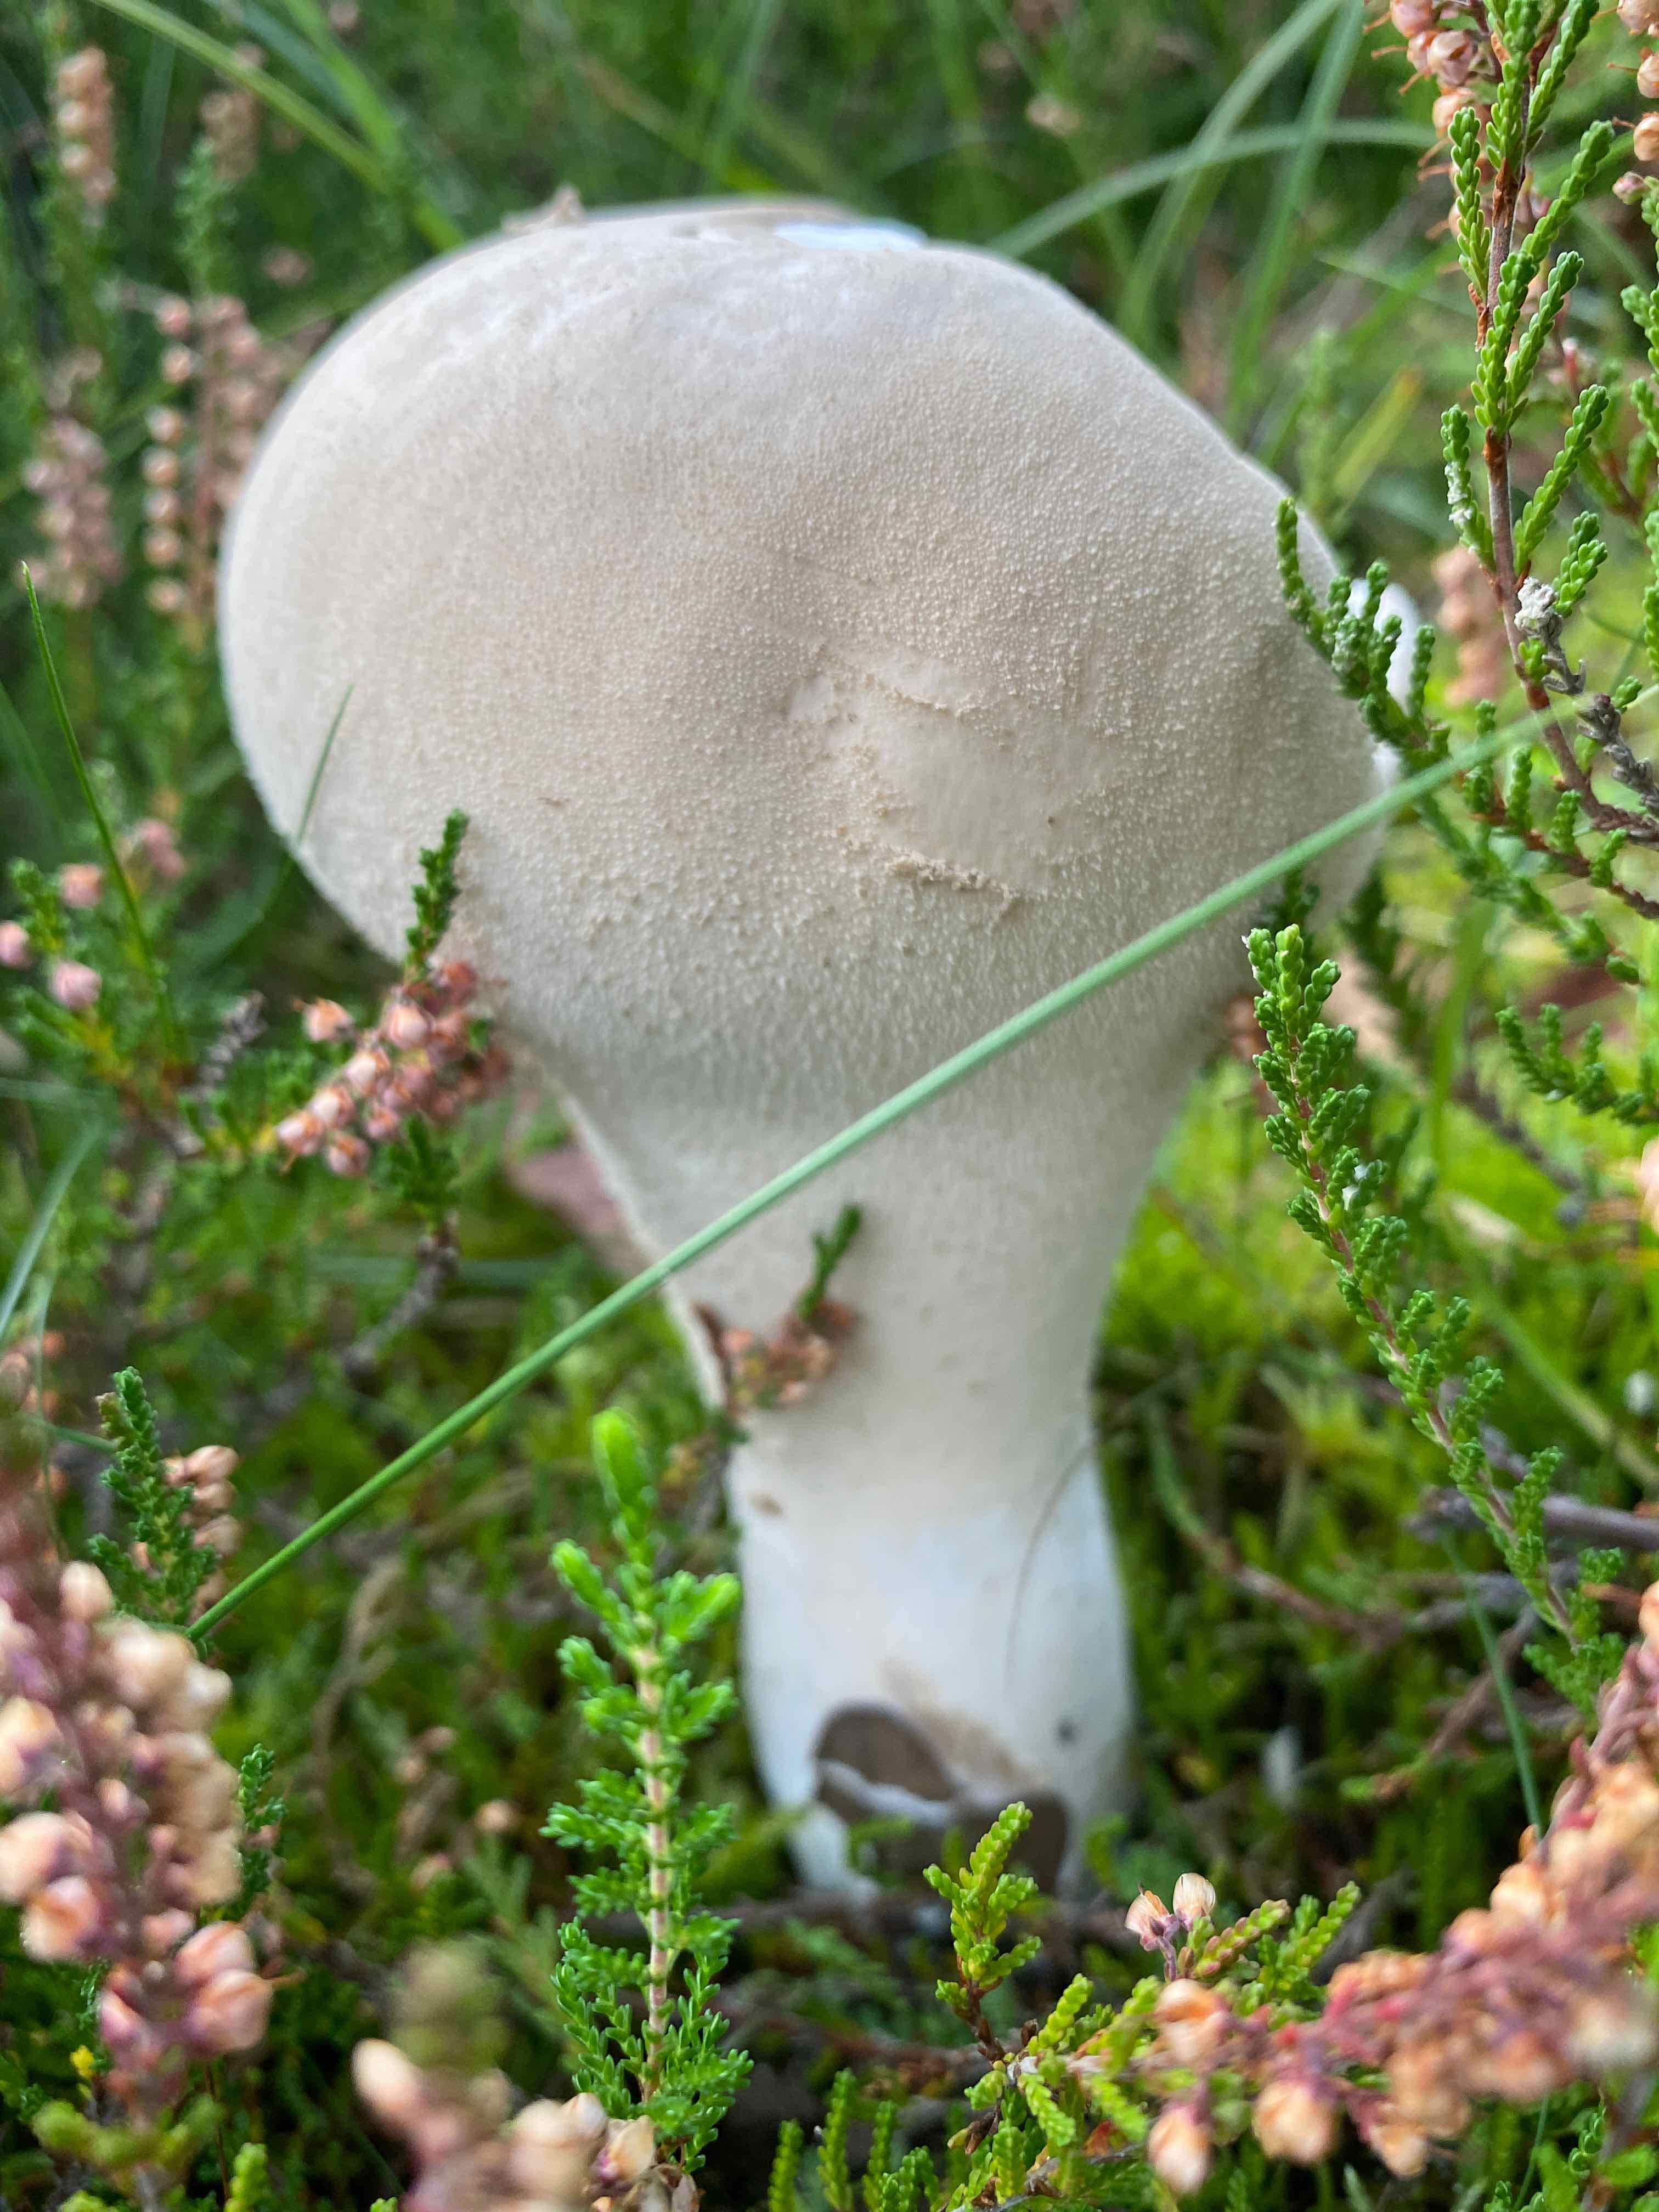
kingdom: Fungi
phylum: Basidiomycota
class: Agaricomycetes
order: Agaricales
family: Lycoperdaceae
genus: Lycoperdon
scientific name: Lycoperdon excipuliforme
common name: højstokket støvbold
